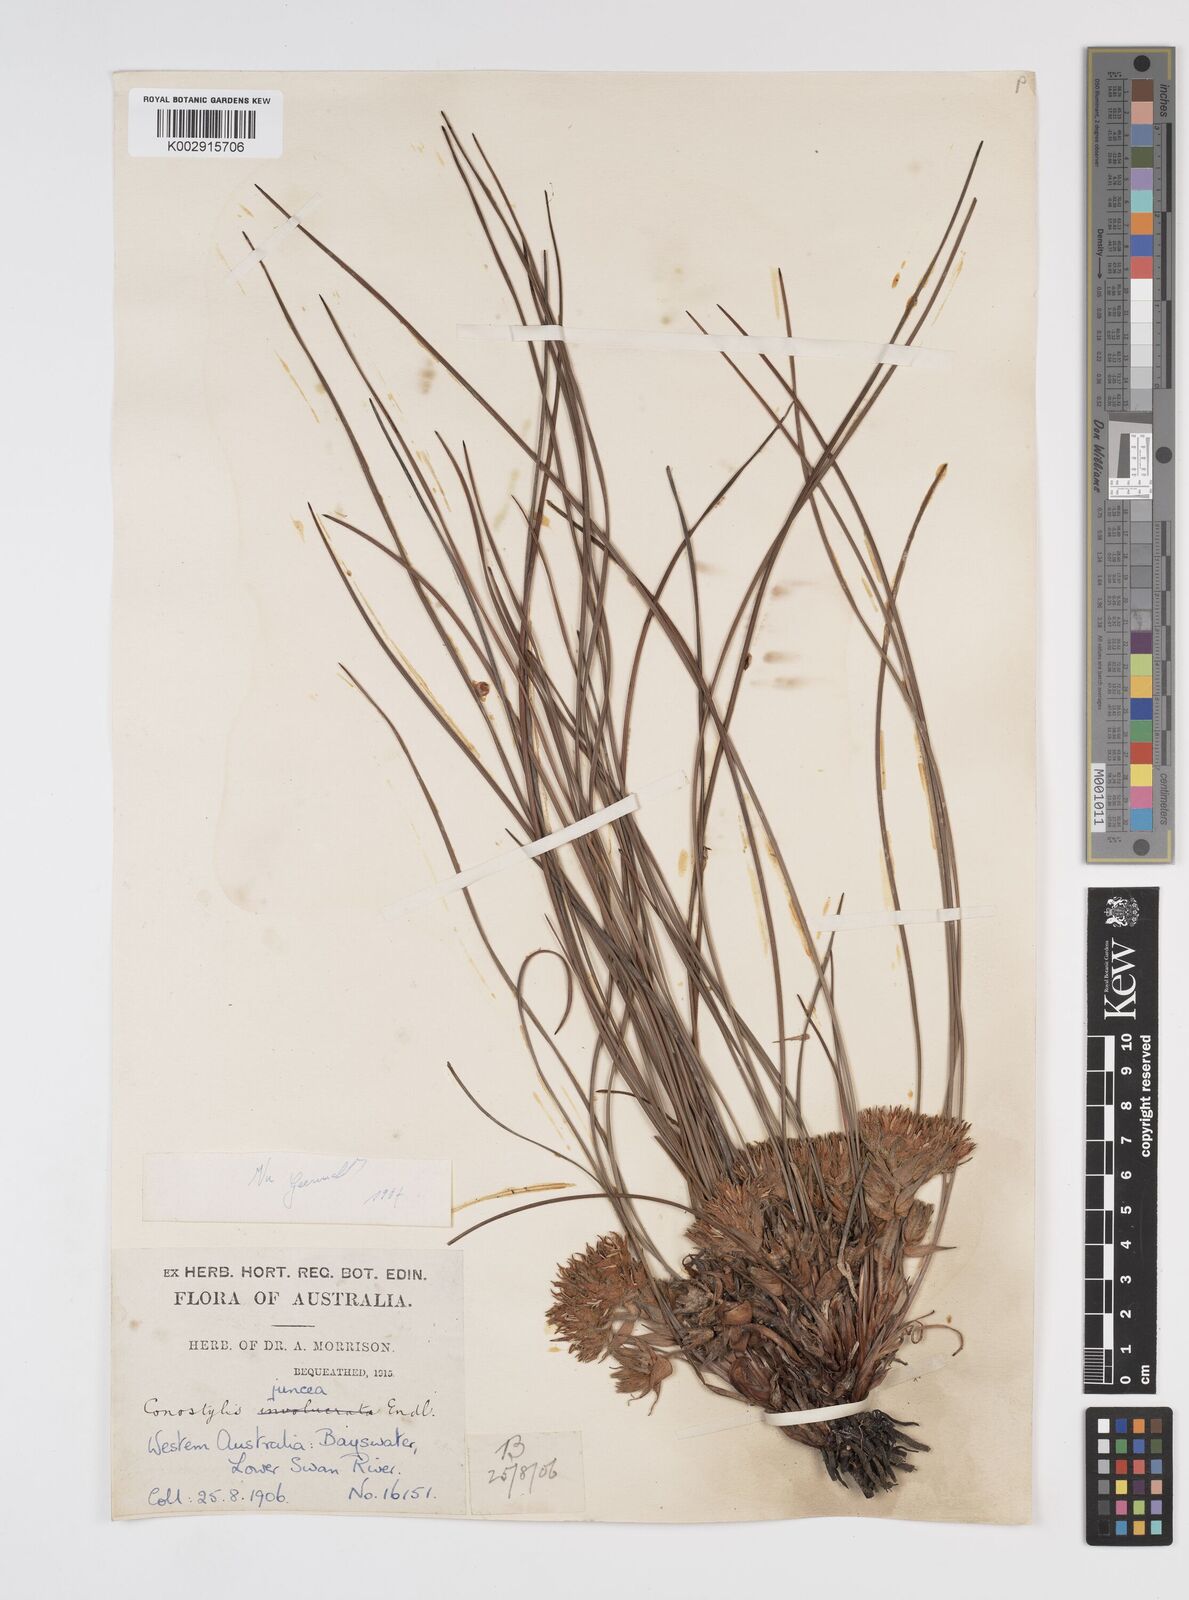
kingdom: Plantae
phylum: Tracheophyta
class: Liliopsida
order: Commelinales
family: Haemodoraceae
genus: Conostylis
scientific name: Conostylis juncea
